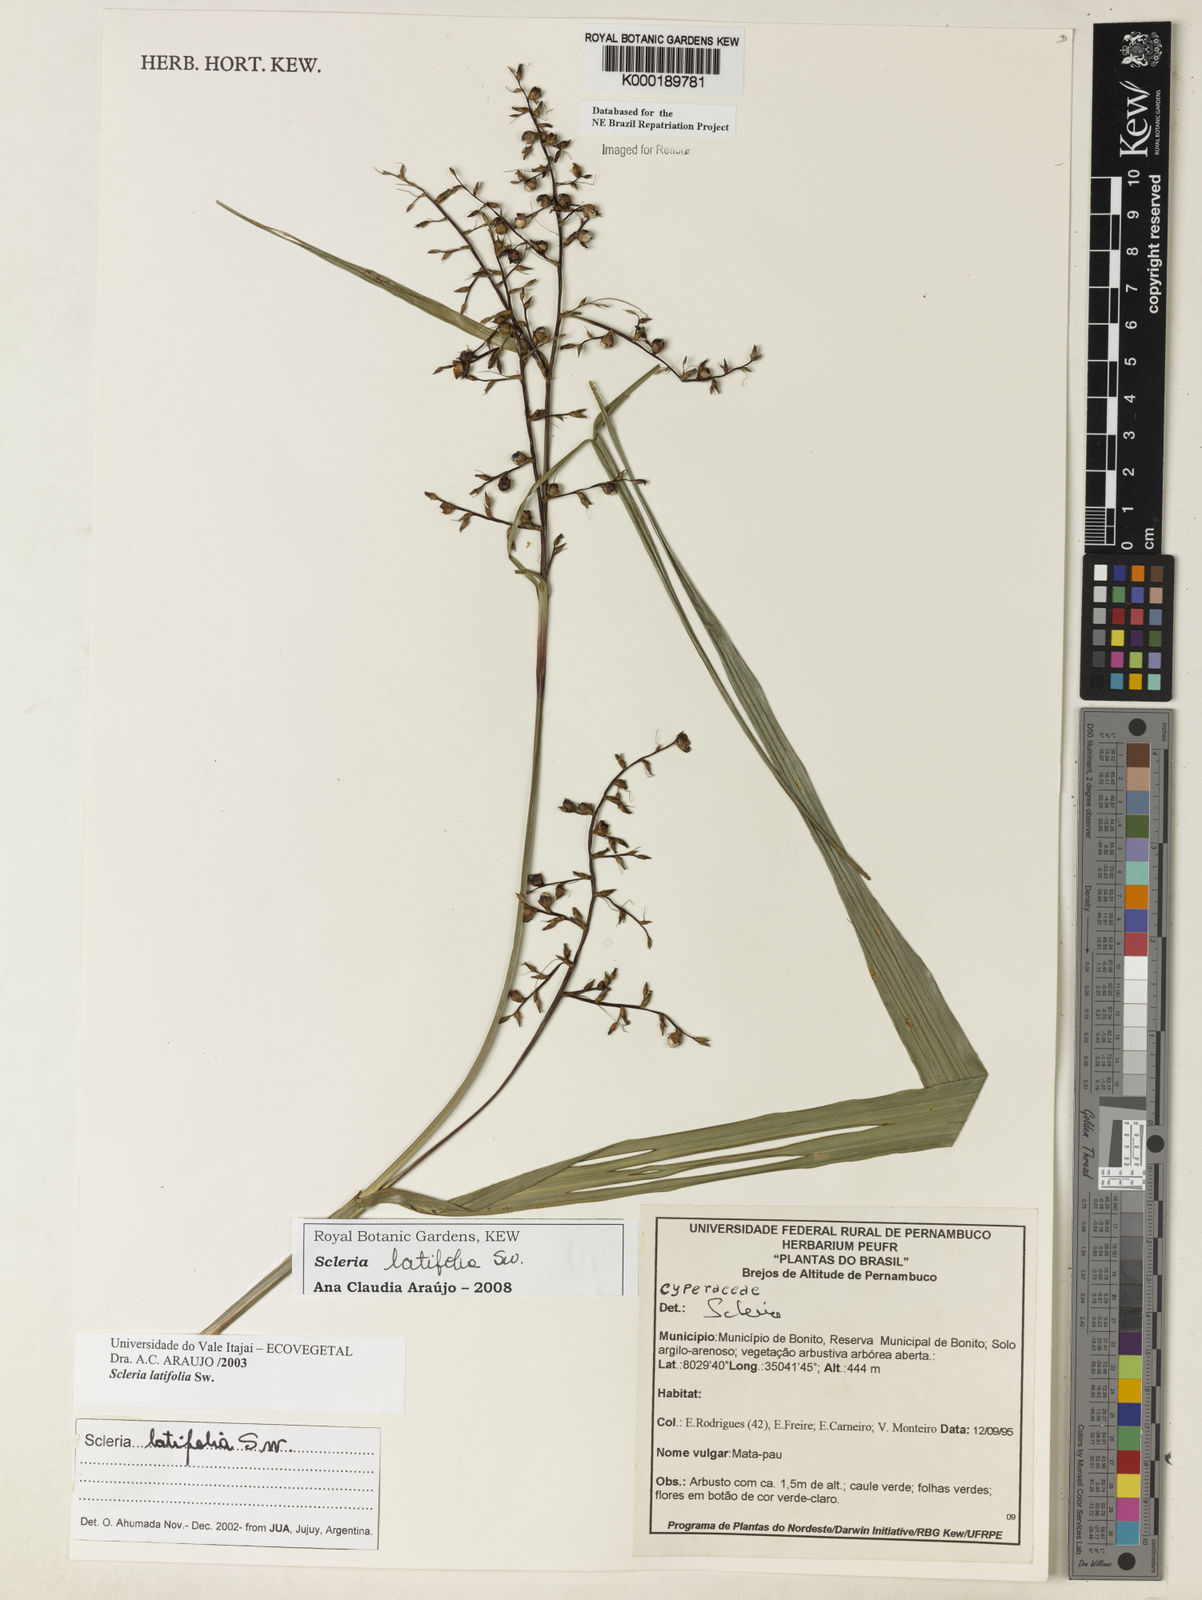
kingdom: Plantae
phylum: Tracheophyta
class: Liliopsida
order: Poales
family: Cyperaceae
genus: Scleria
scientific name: Scleria latifolia
